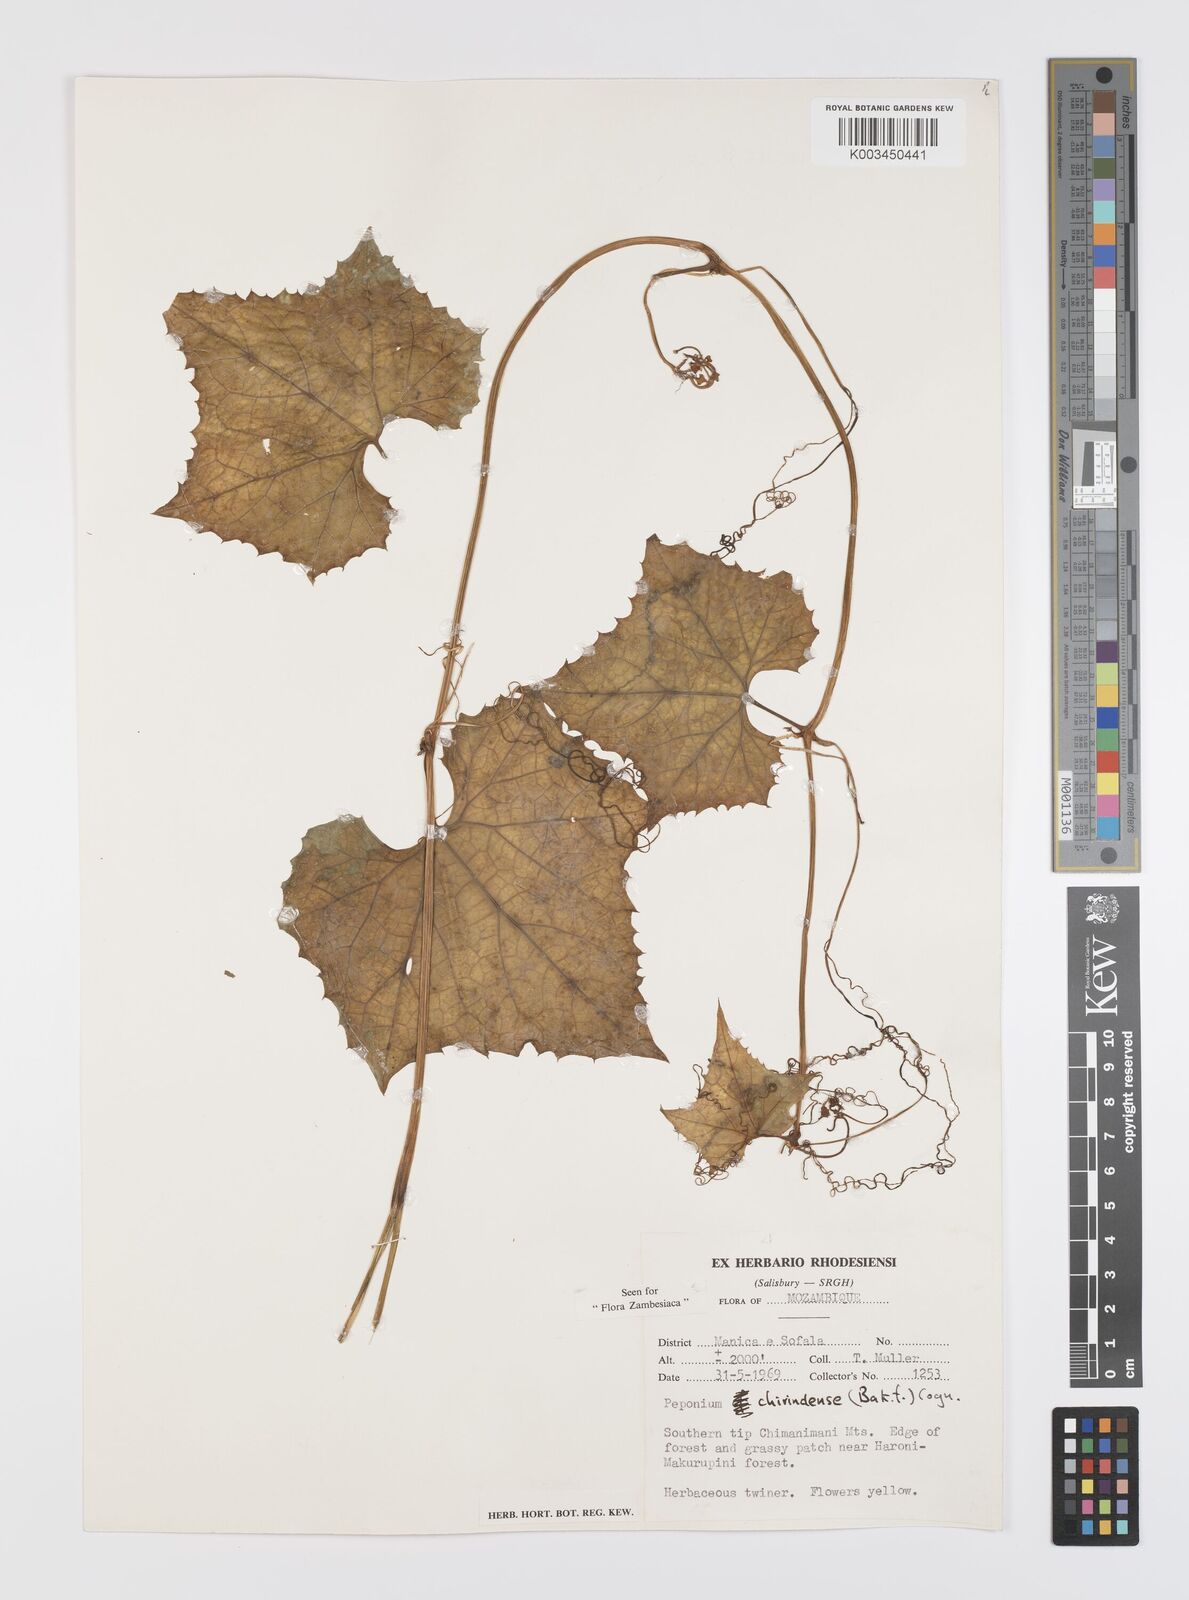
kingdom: Plantae
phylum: Tracheophyta
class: Magnoliopsida
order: Cucurbitales
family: Cucurbitaceae
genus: Peponium
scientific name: Peponium chirindense
